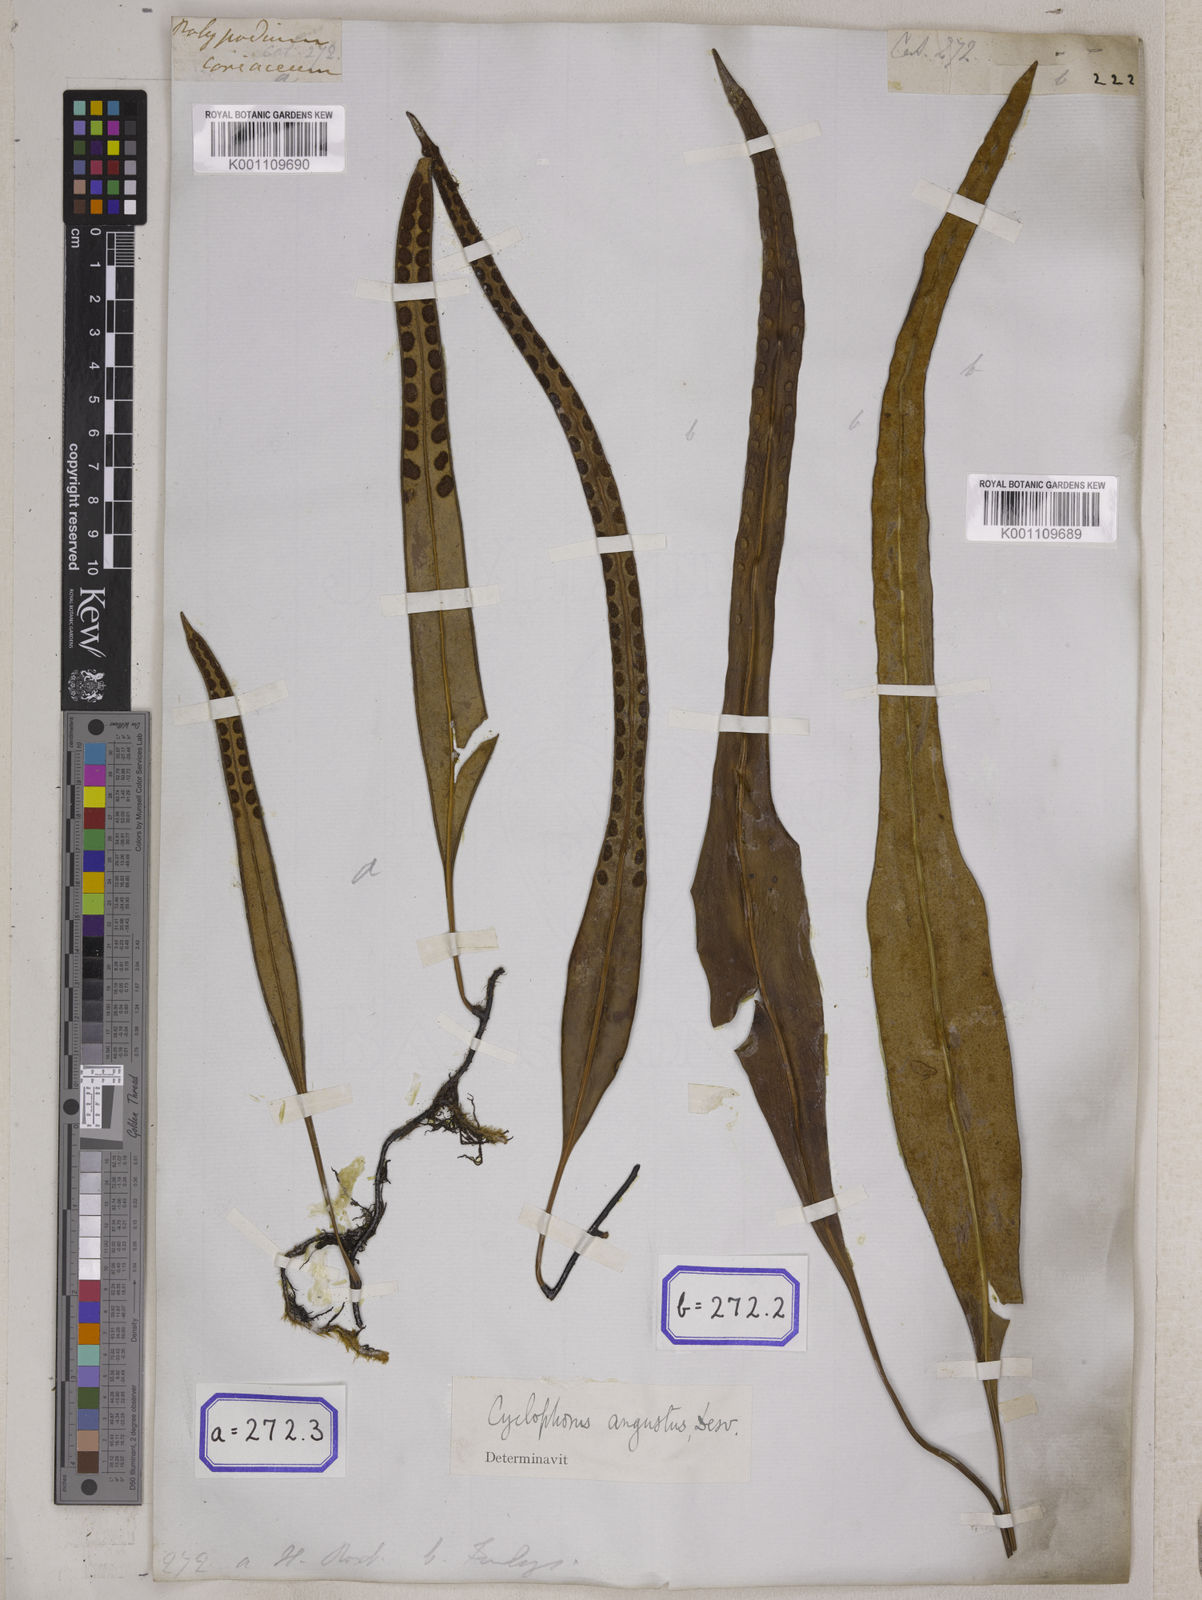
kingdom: Plantae
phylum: Tracheophyta
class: Polypodiopsida
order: Polypodiales
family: Polypodiaceae
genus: Pyrrosia
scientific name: Pyrrosia angustata
